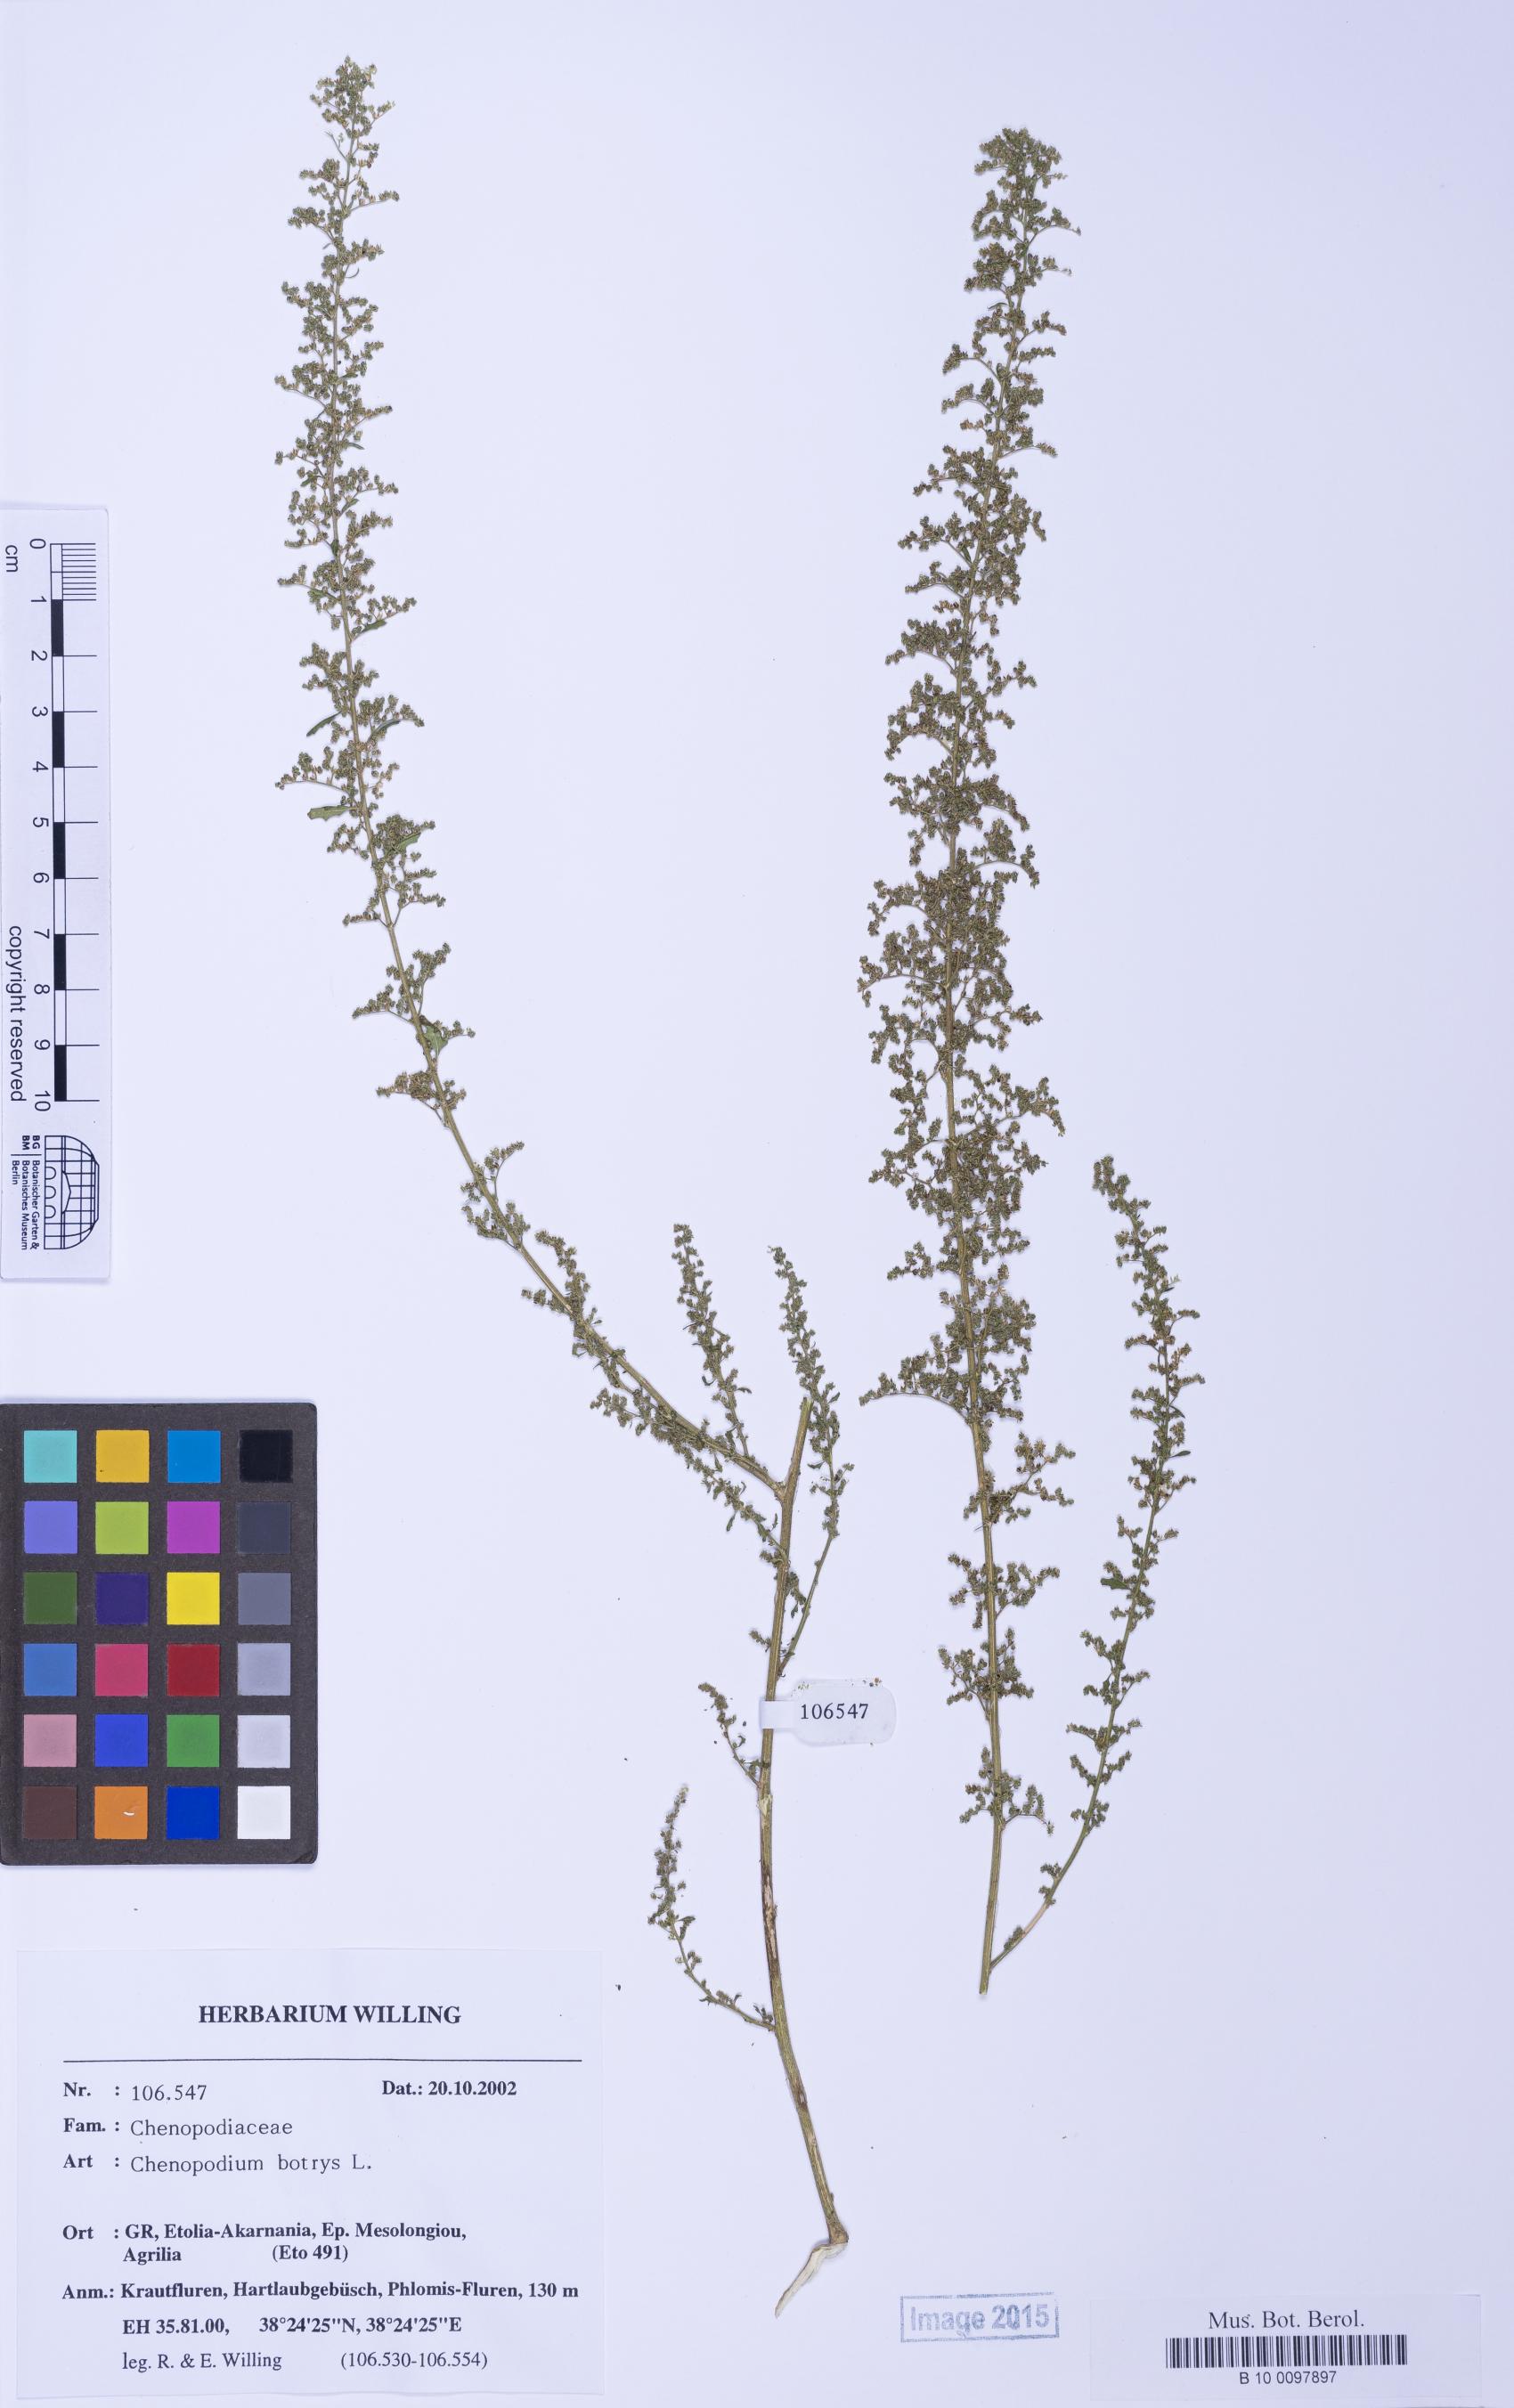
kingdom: Plantae
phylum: Tracheophyta
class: Magnoliopsida
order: Caryophyllales
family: Amaranthaceae
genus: Dysphania
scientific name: Dysphania botrys
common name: Feather-geranium
